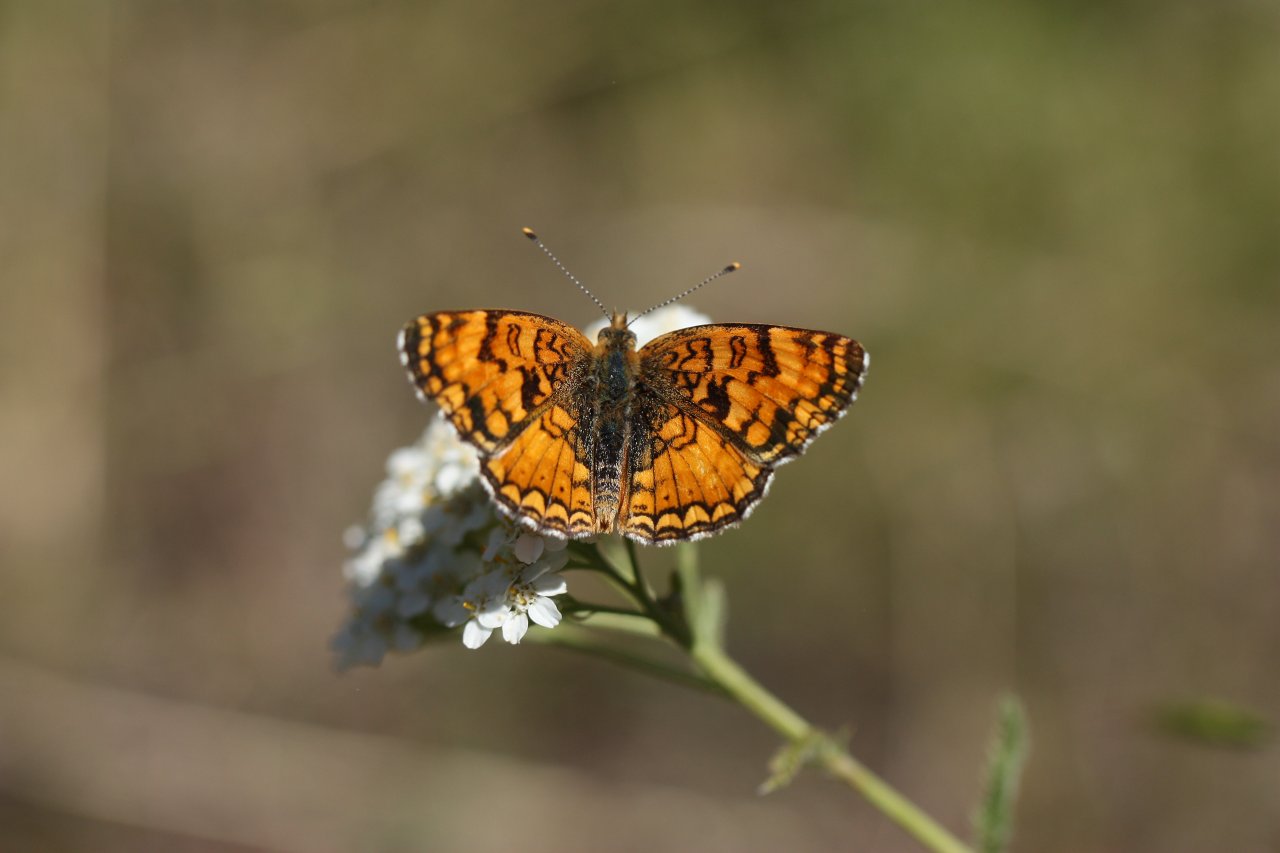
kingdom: Animalia
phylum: Arthropoda
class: Insecta
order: Lepidoptera
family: Nymphalidae
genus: Eresia
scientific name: Eresia aveyrona
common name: Mylitta Crescent
